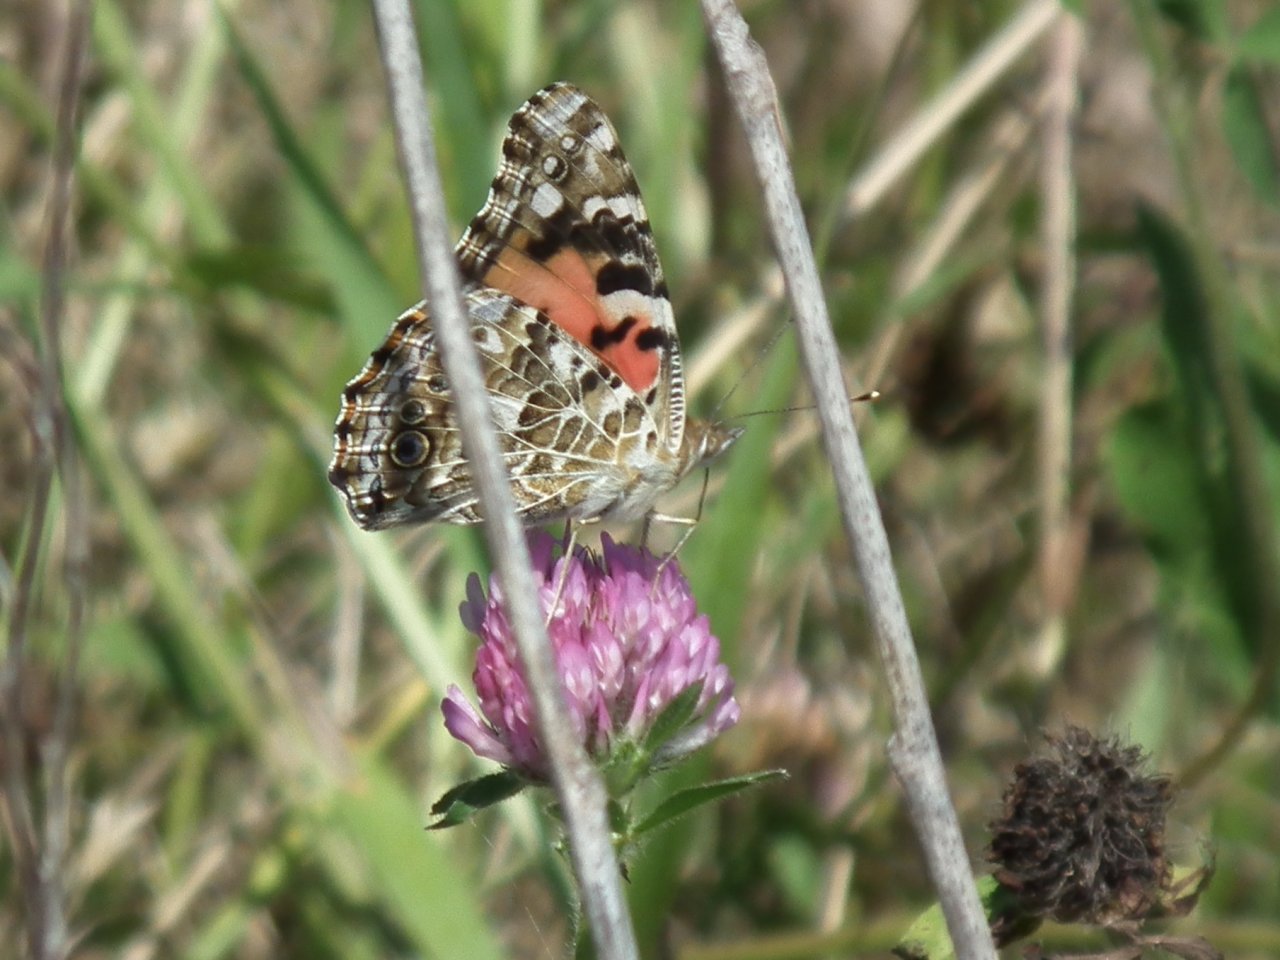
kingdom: Animalia
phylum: Arthropoda
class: Insecta
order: Lepidoptera
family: Nymphalidae
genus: Vanessa
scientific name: Vanessa cardui
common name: Painted Lady
